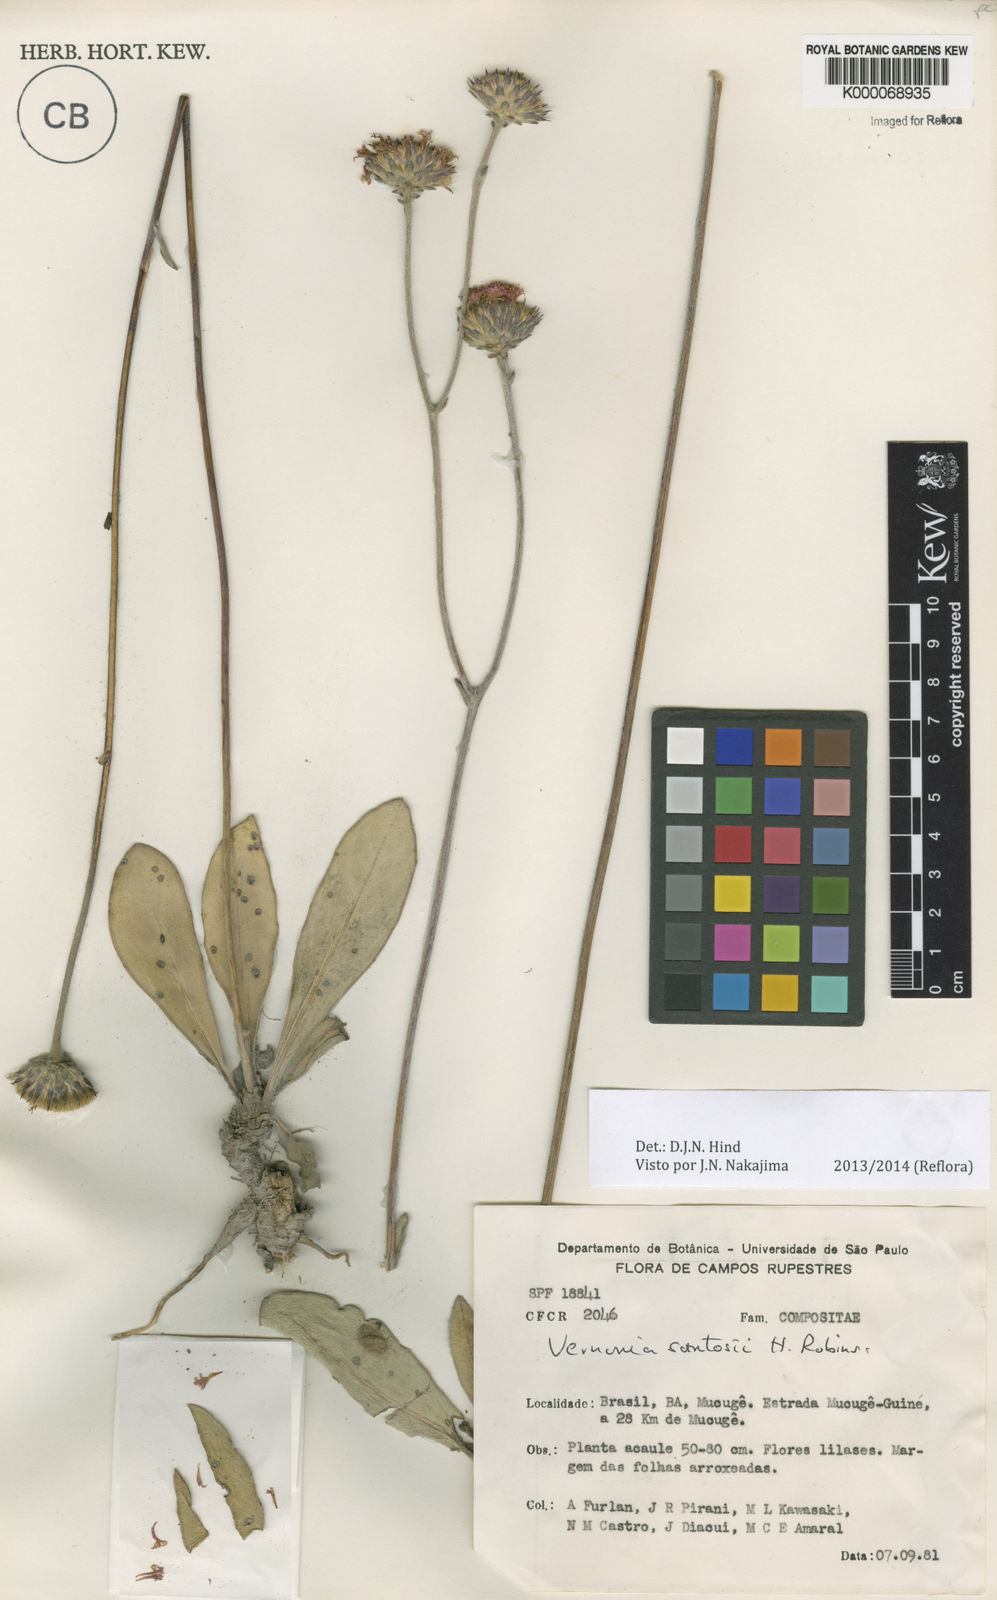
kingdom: Plantae
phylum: Tracheophyta
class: Magnoliopsida
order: Asterales
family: Asteraceae
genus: Lessingianthus
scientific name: Lessingianthus santosii
